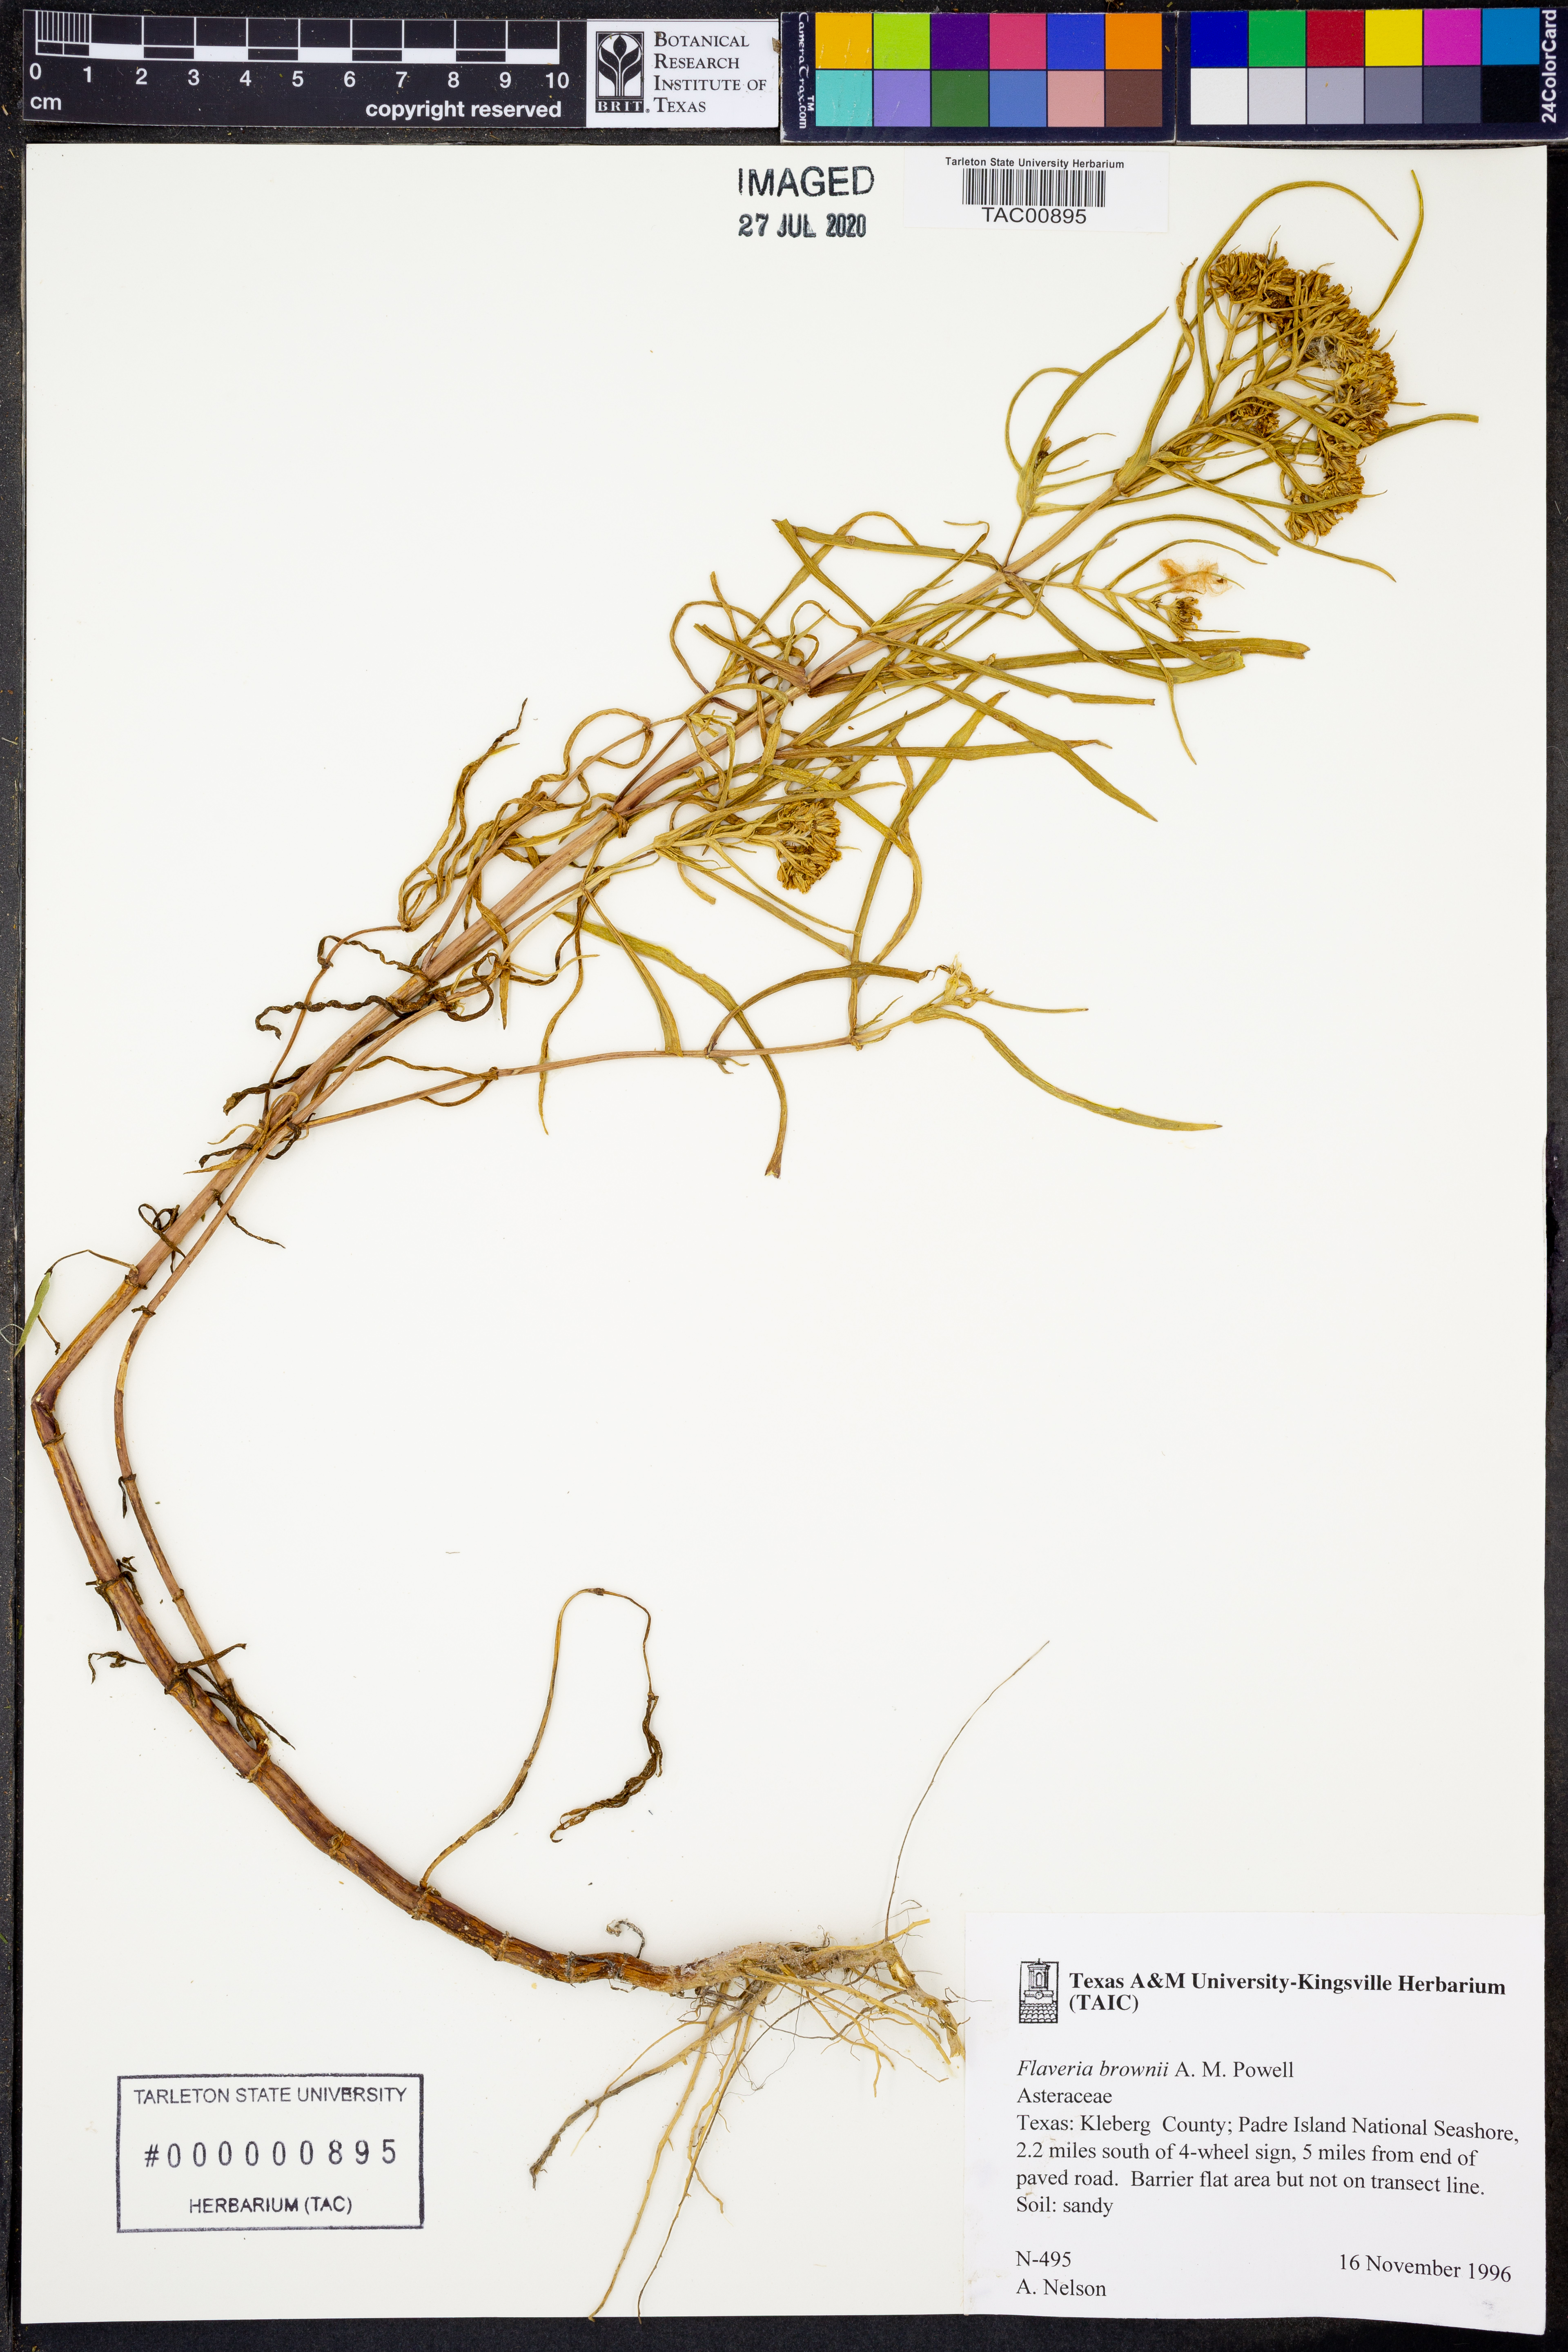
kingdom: Plantae
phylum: Tracheophyta
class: Magnoliopsida
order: Asterales
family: Asteraceae
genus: Flaveria
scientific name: Flaveria brownii
